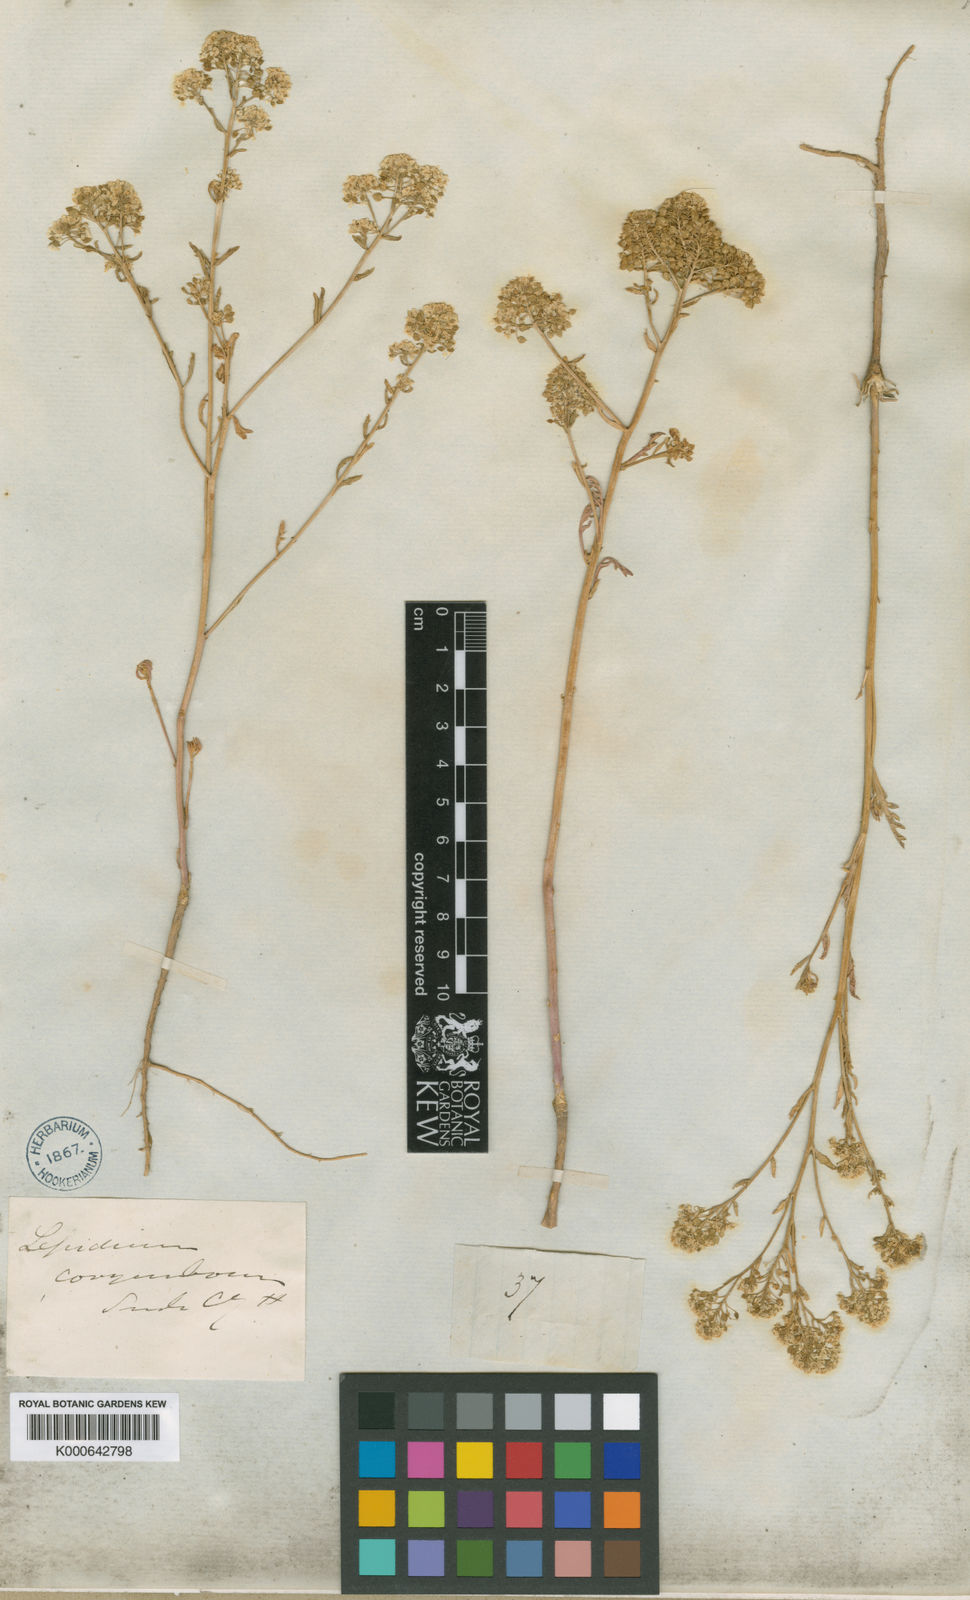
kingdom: Plantae
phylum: Tracheophyta
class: Magnoliopsida
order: Brassicales
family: Brassicaceae
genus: Lepidium
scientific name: Lepidium montanum
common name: Mountain pepperplant
